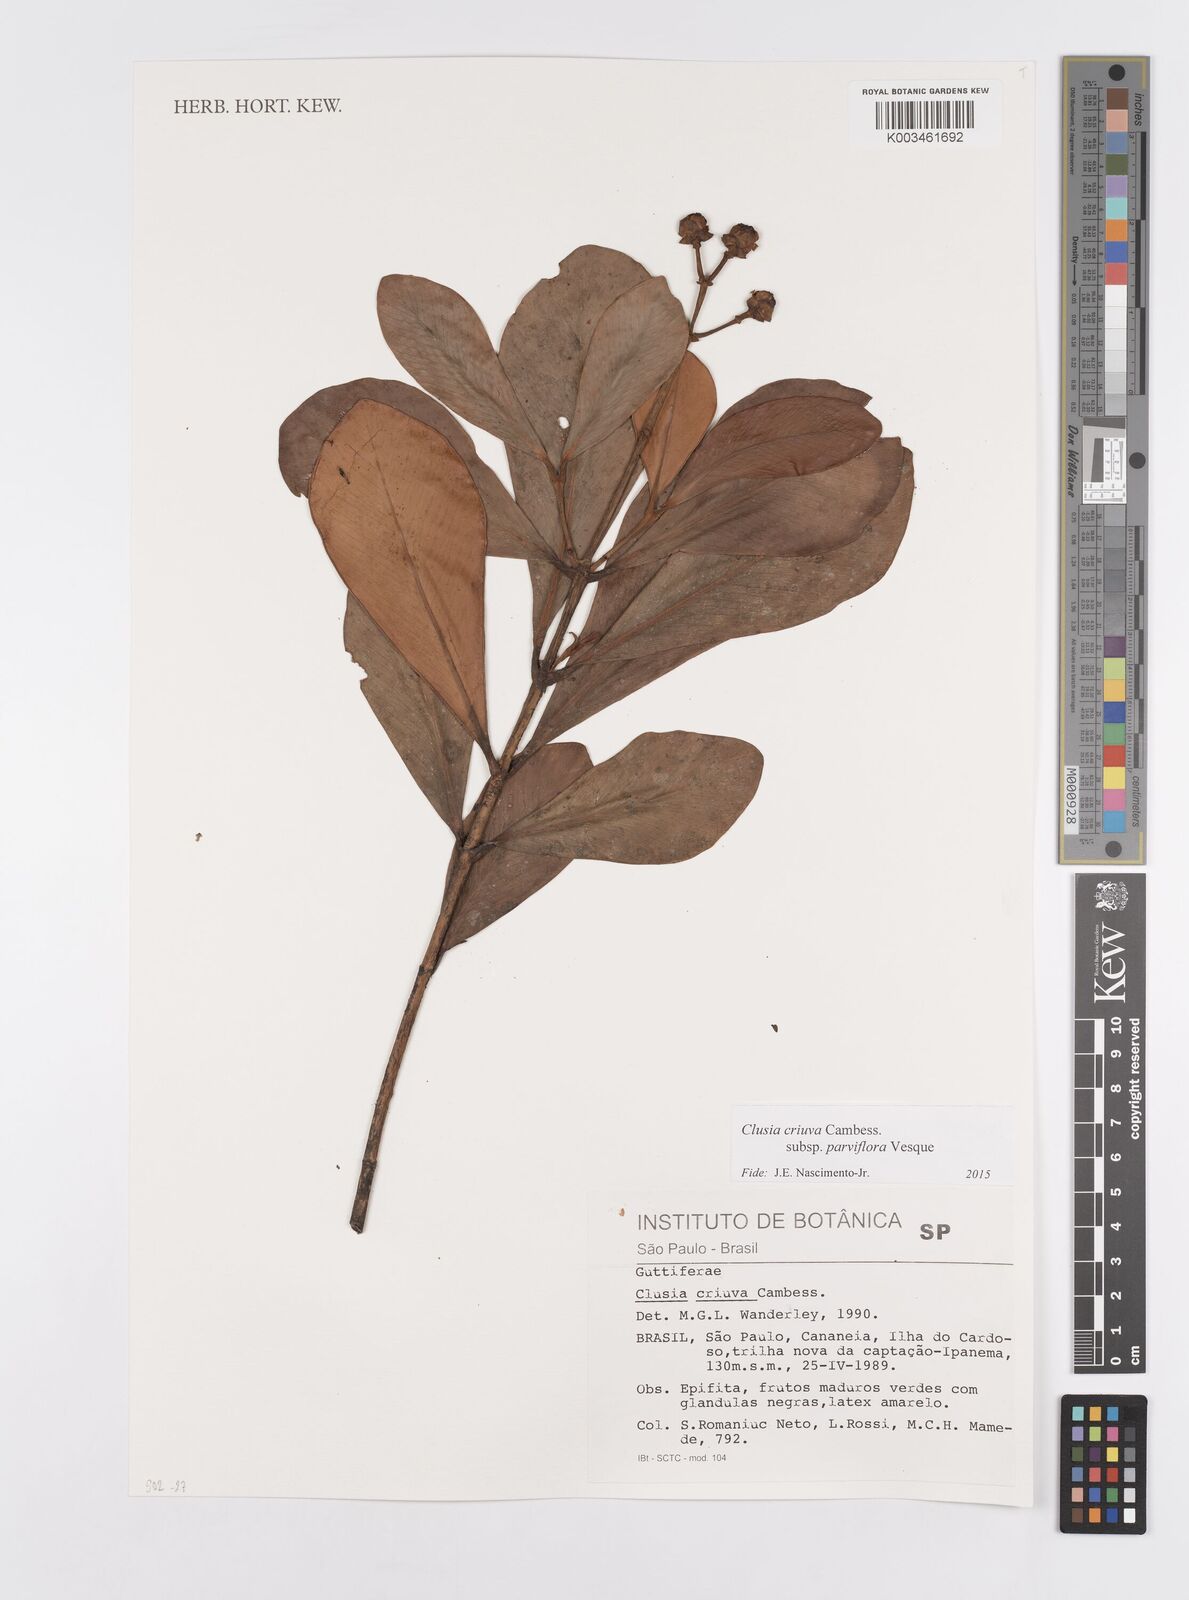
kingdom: Plantae
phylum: Tracheophyta
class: Magnoliopsida
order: Malpighiales
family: Clusiaceae
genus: Clusia
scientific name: Clusia criuva
